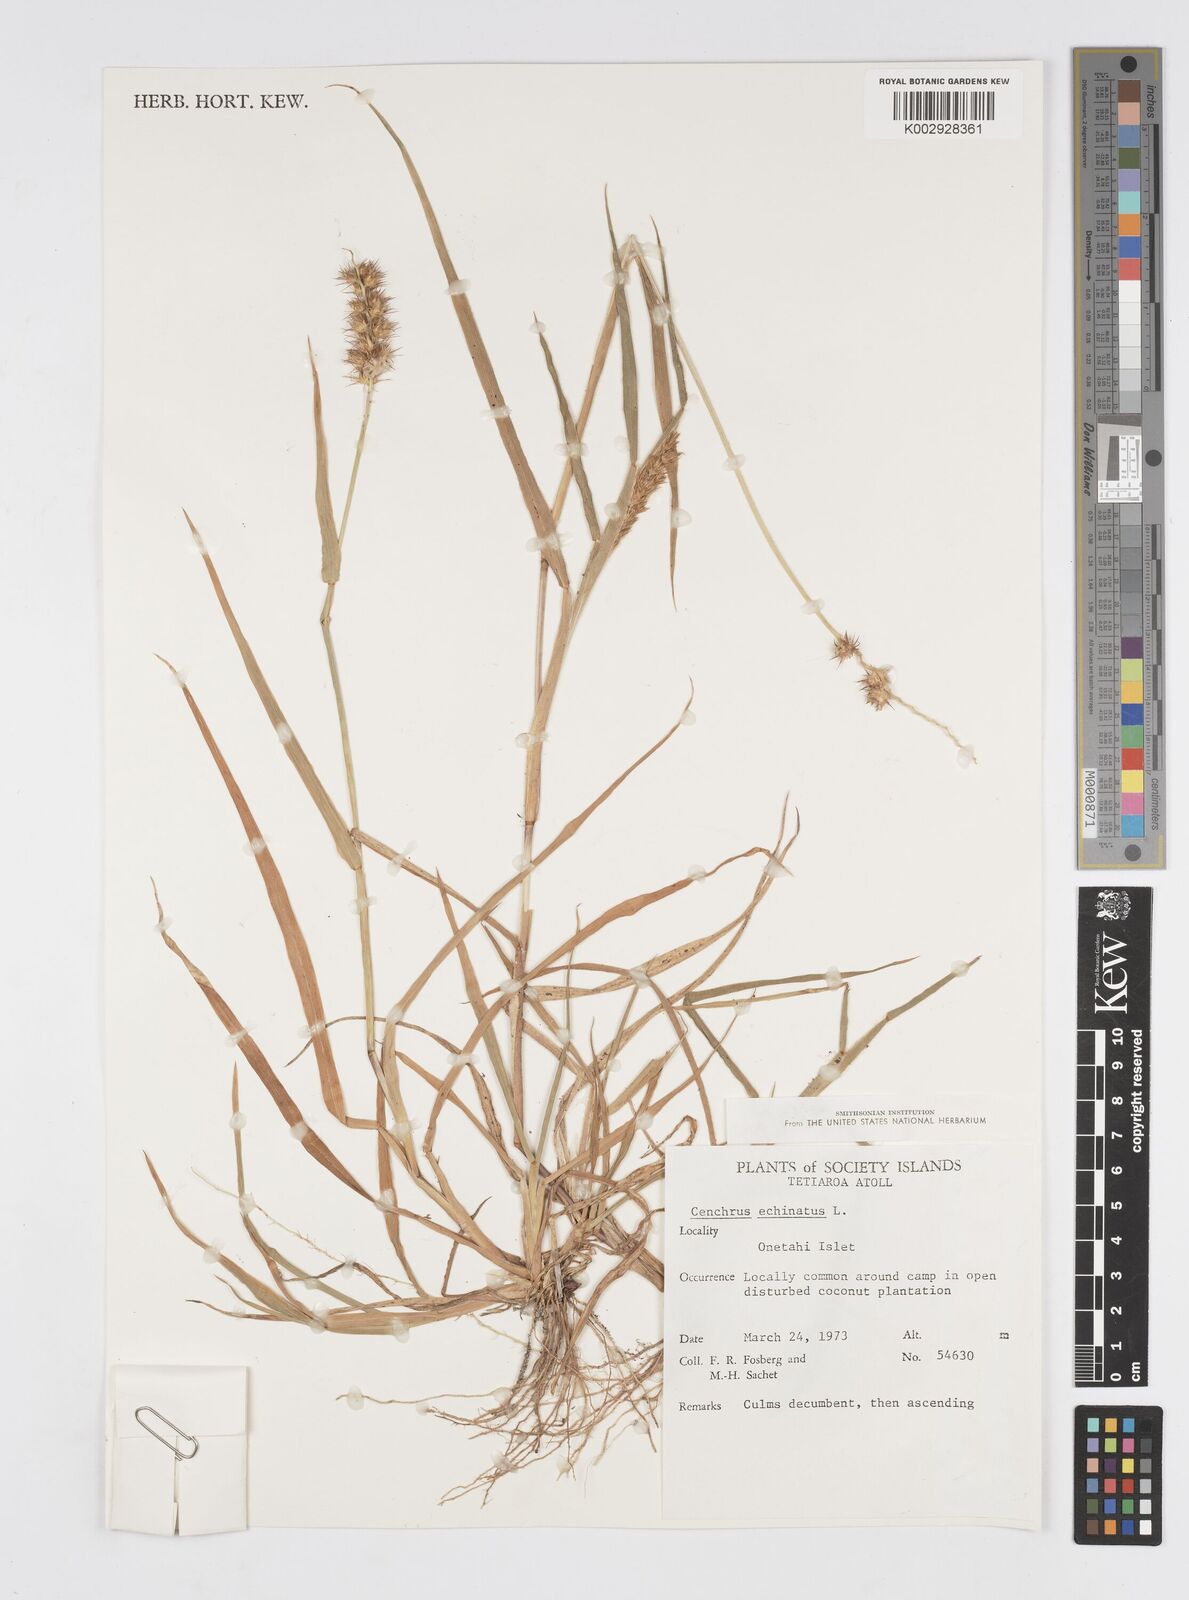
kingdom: Plantae
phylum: Tracheophyta
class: Liliopsida
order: Poales
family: Poaceae
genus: Cenchrus
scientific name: Cenchrus echinatus
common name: Southern sandbur
